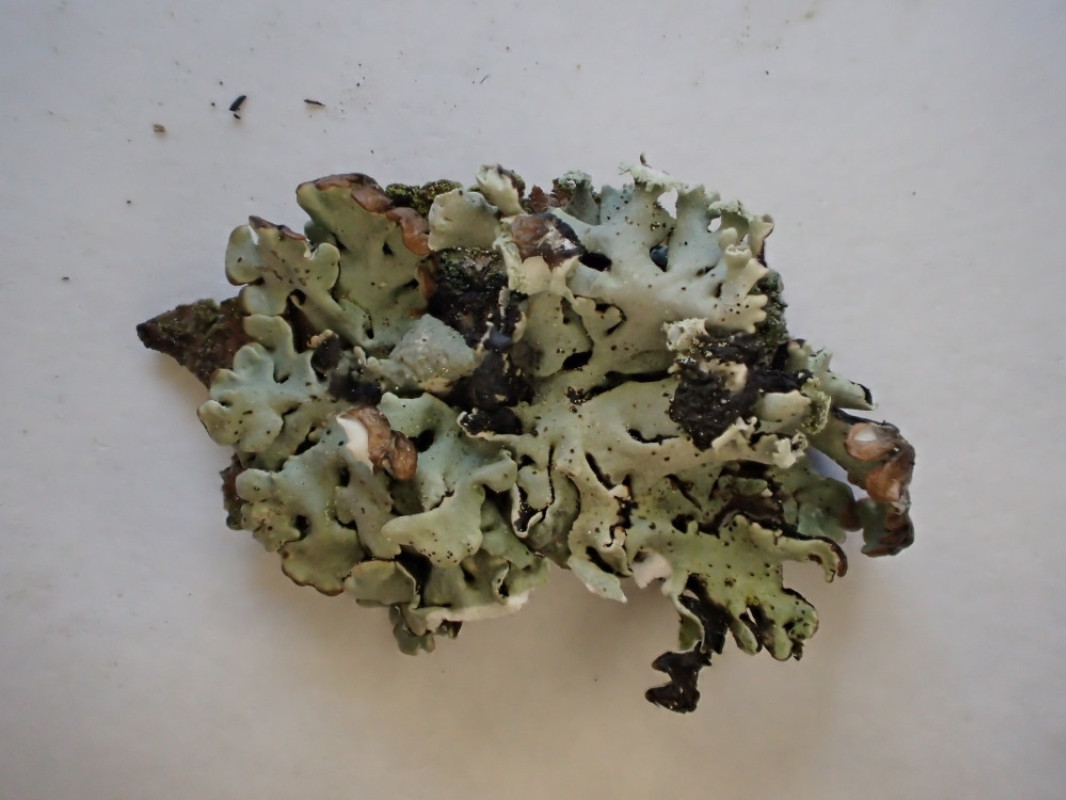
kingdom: Fungi
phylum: Ascomycota
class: Lecanoromycetes
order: Lecanorales
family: Parmeliaceae
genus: Hypogymnia
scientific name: Hypogymnia physodes
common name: almindelig kvistlav
